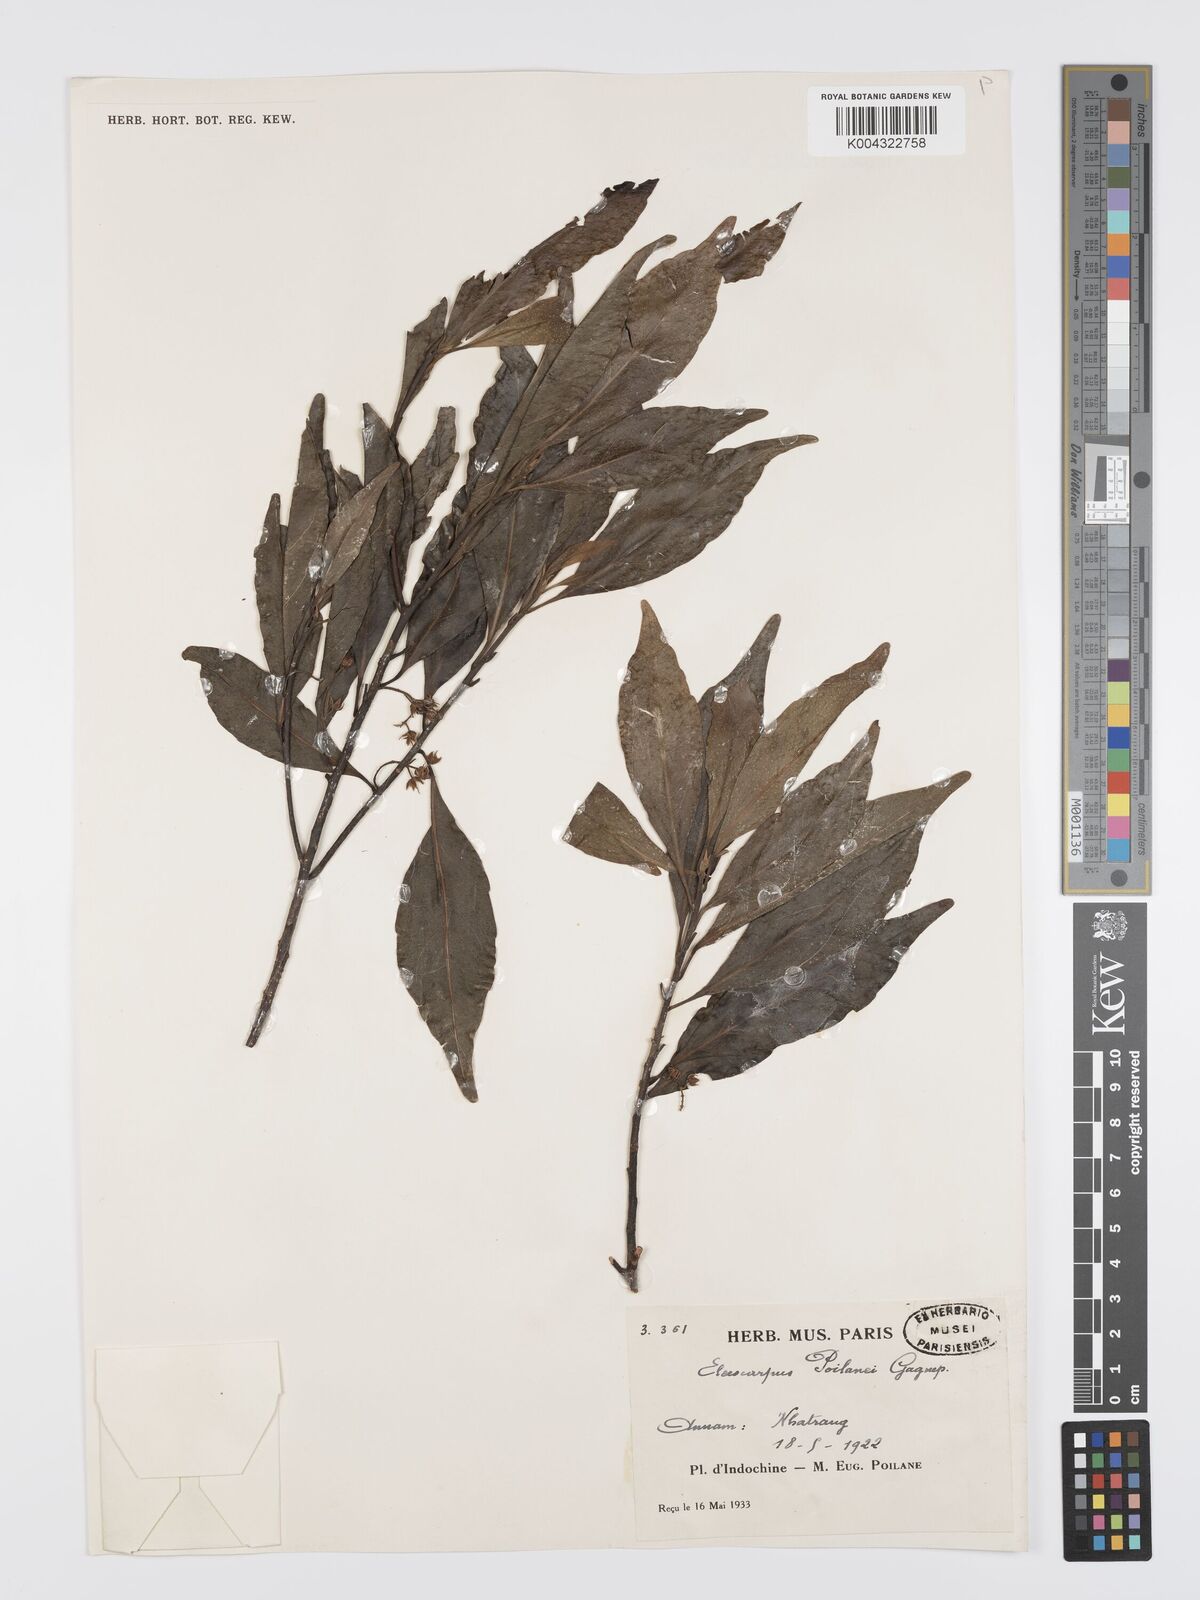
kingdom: Plantae
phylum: Tracheophyta
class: Magnoliopsida
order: Oxalidales
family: Elaeocarpaceae
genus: Elaeocarpus
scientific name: Elaeocarpus poilanei
